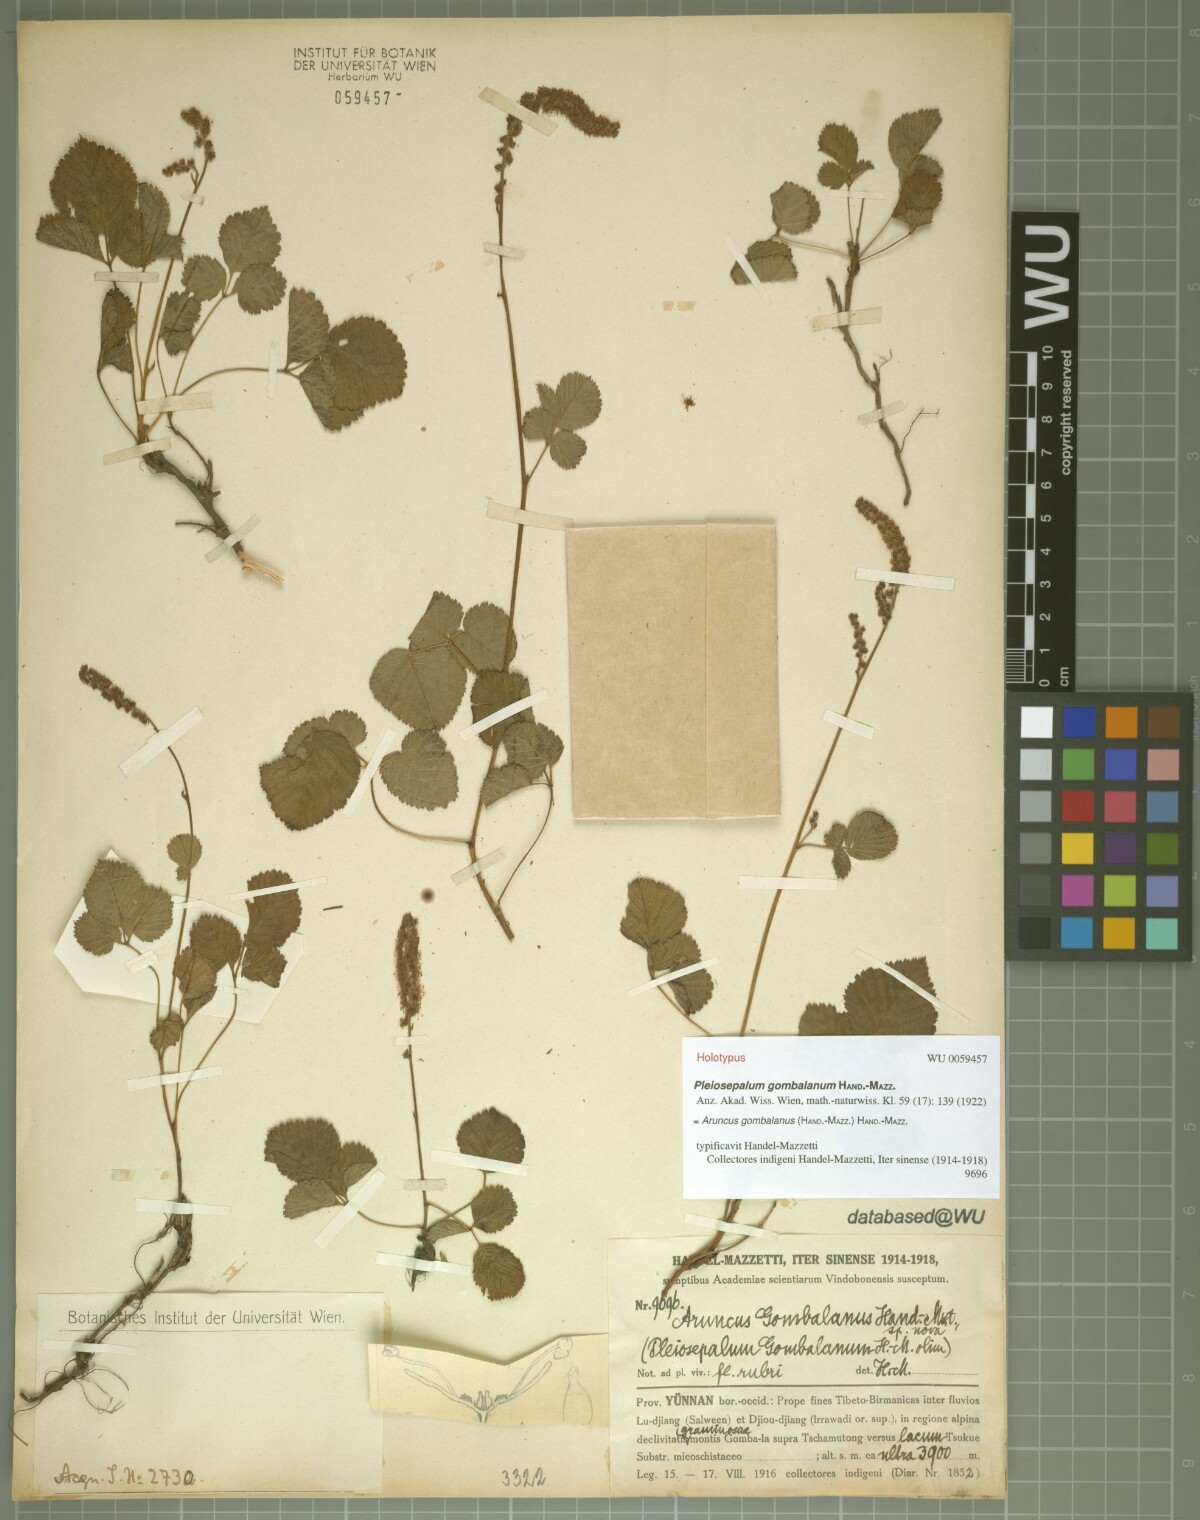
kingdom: Plantae
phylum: Tracheophyta
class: Magnoliopsida
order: Rosales
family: Rosaceae
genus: Aruncus
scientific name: Aruncus gombalanus
